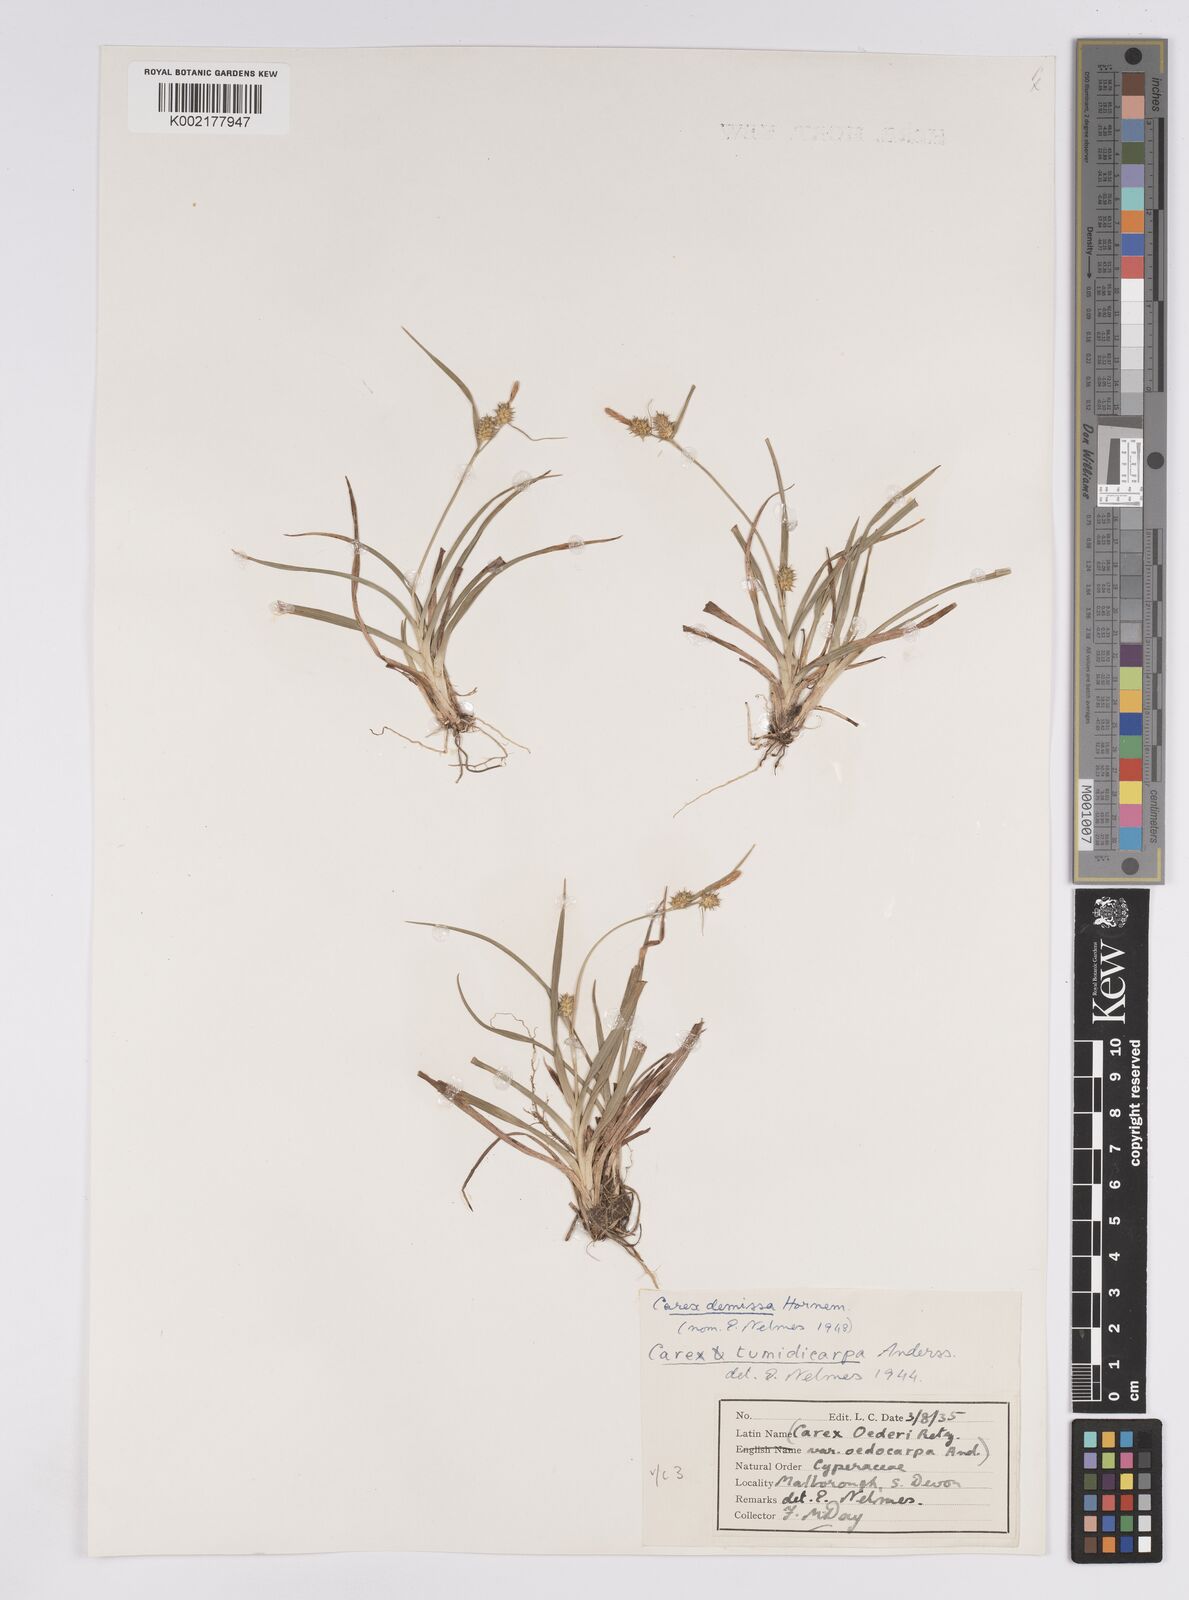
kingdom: Plantae
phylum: Tracheophyta
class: Liliopsida
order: Poales
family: Cyperaceae
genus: Carex
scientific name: Carex demissa
